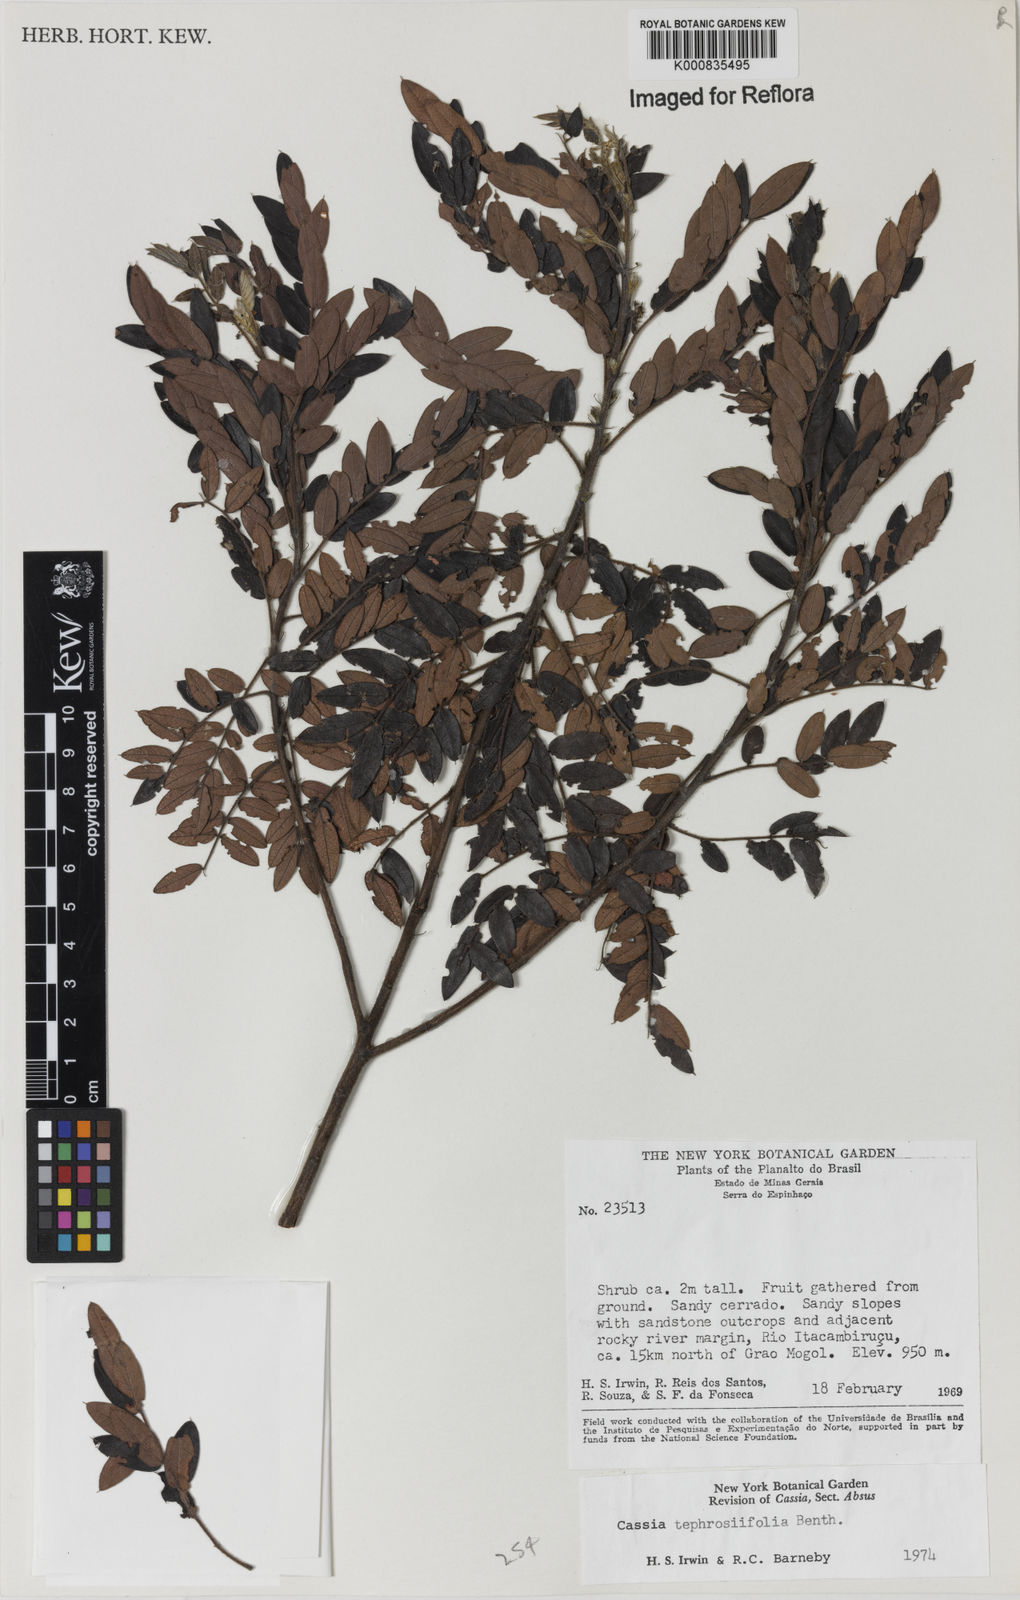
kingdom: Plantae
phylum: Tracheophyta
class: Magnoliopsida
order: Fabales
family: Fabaceae
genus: Chamaecrista
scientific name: Chamaecrista tephrosiifolia
